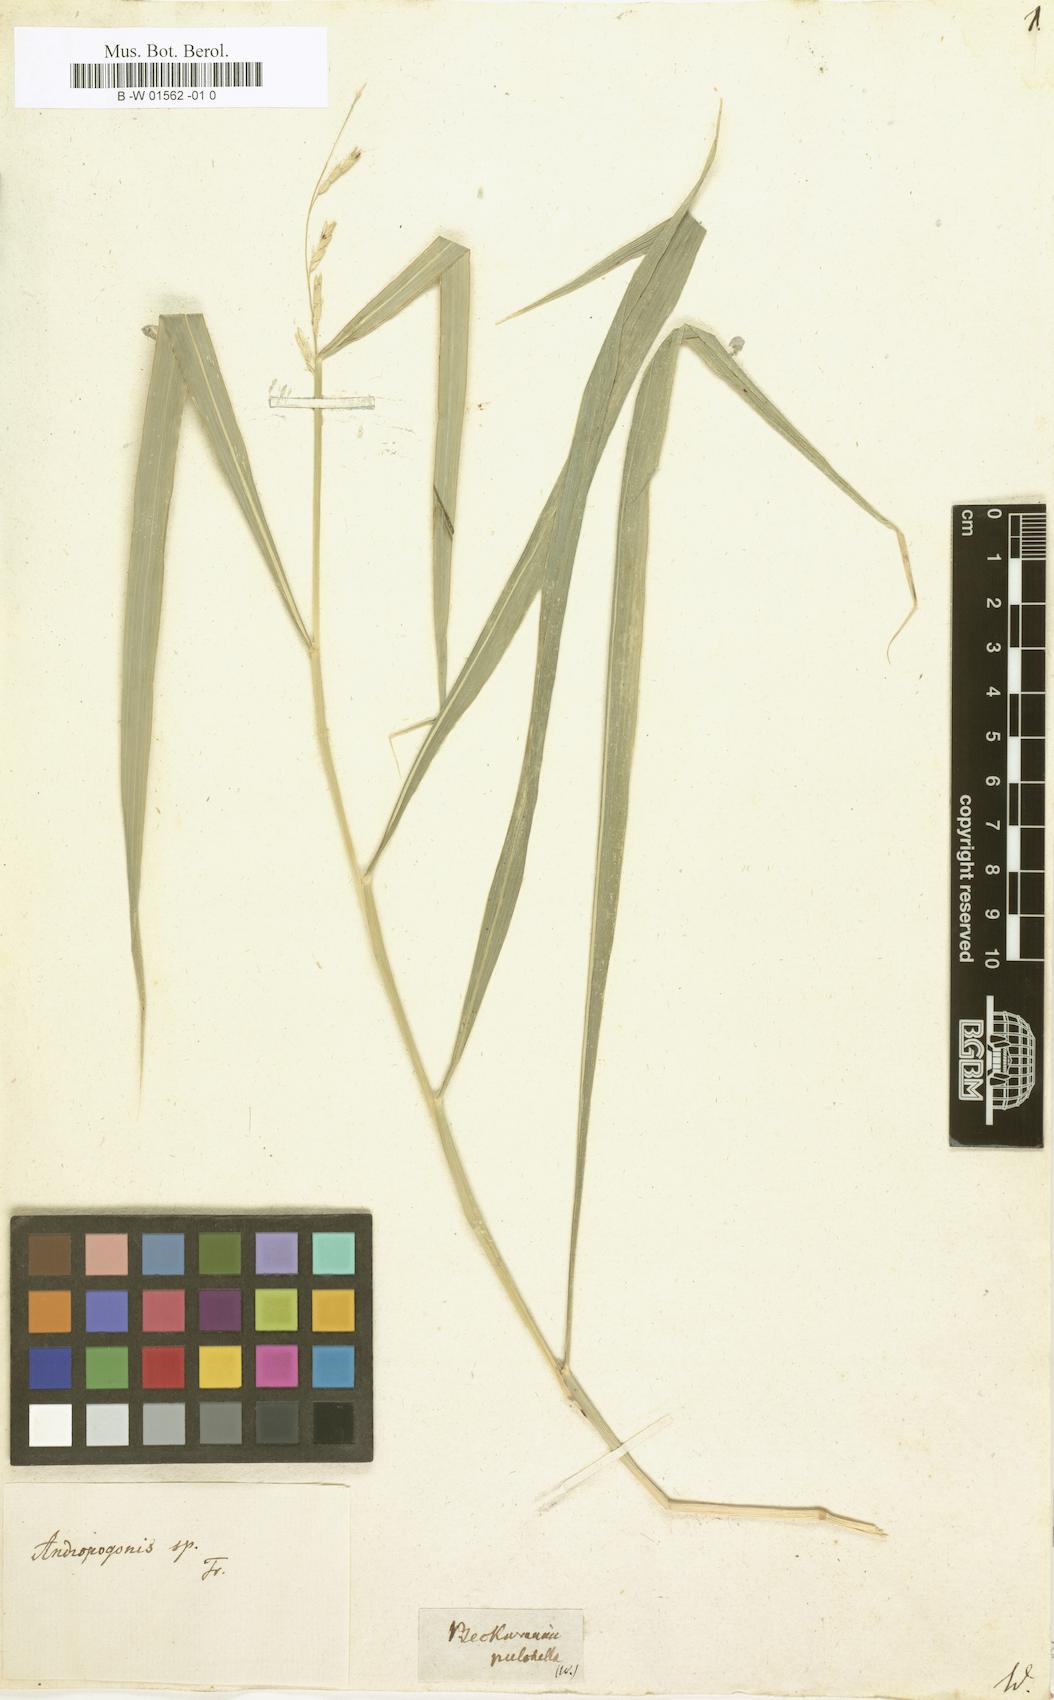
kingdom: Plantae
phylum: Tracheophyta
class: Liliopsida
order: Poales
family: Poaceae
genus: Beckmannia
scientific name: Beckmannia
